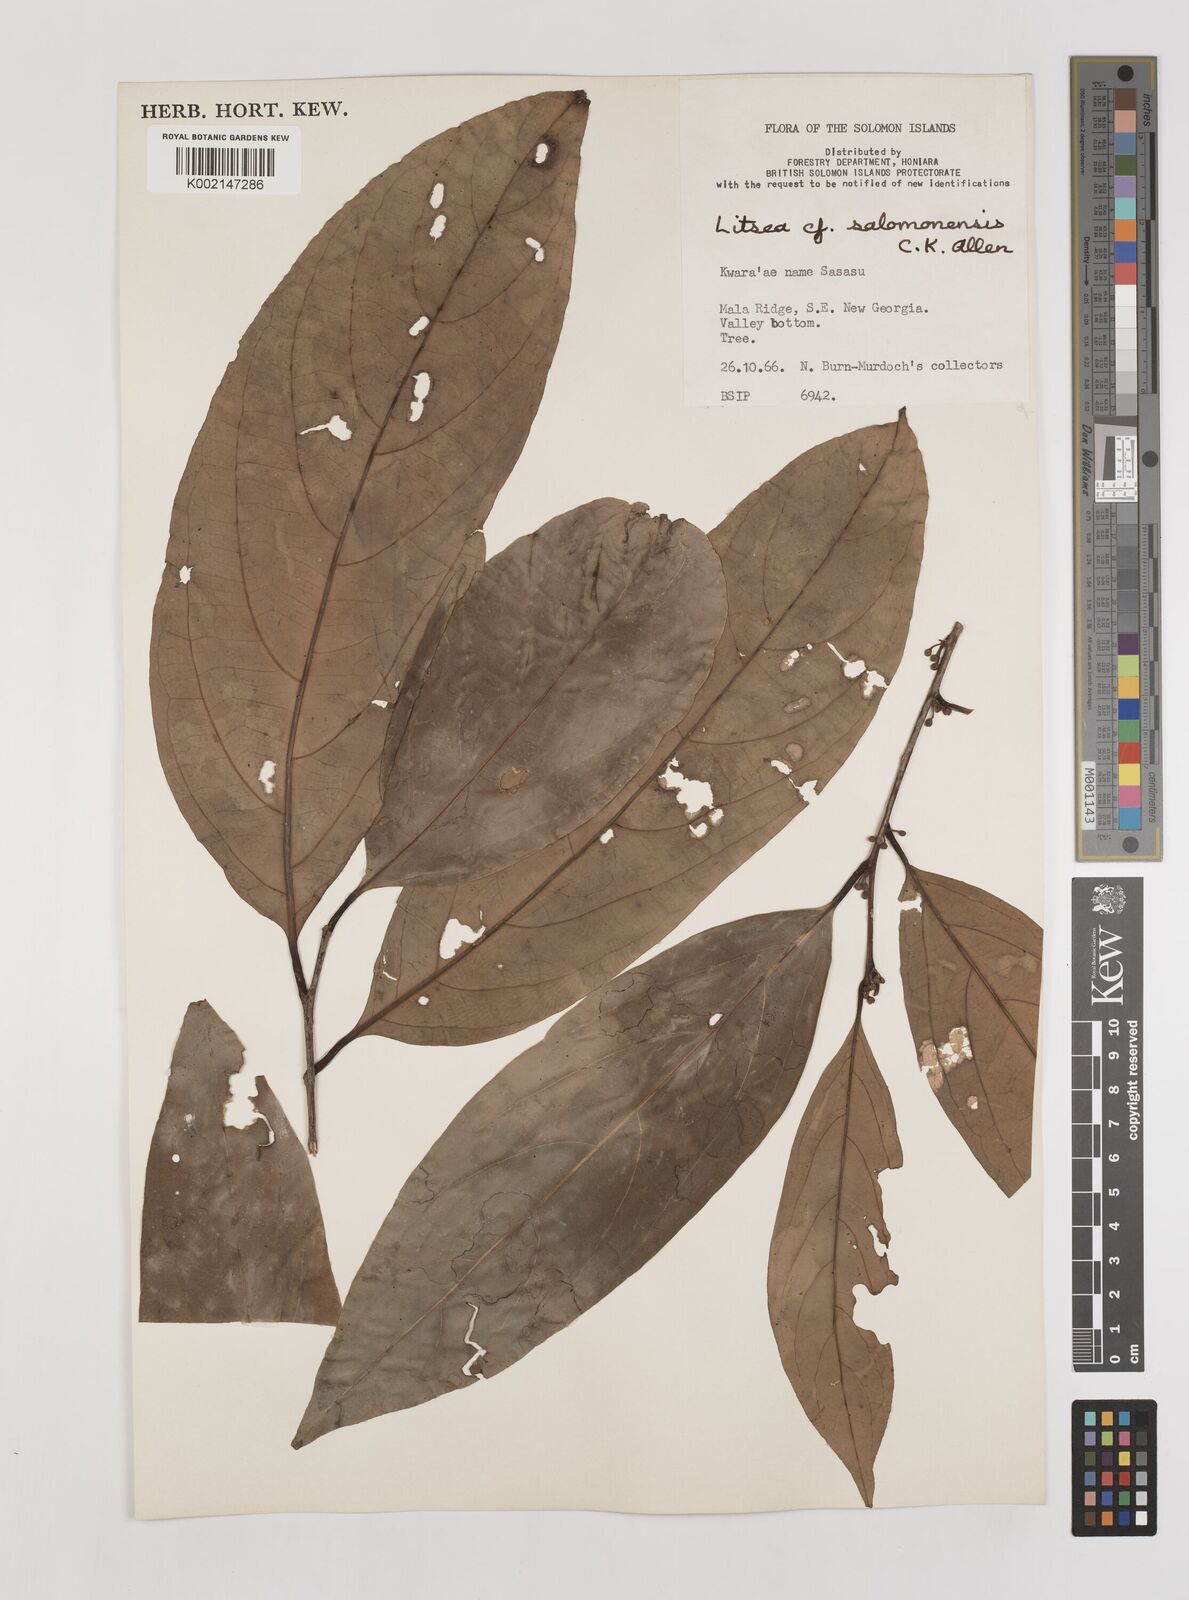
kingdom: Plantae
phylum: Tracheophyta
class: Magnoliopsida
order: Laurales
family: Lauraceae
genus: Litsea
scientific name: Litsea timoriana
